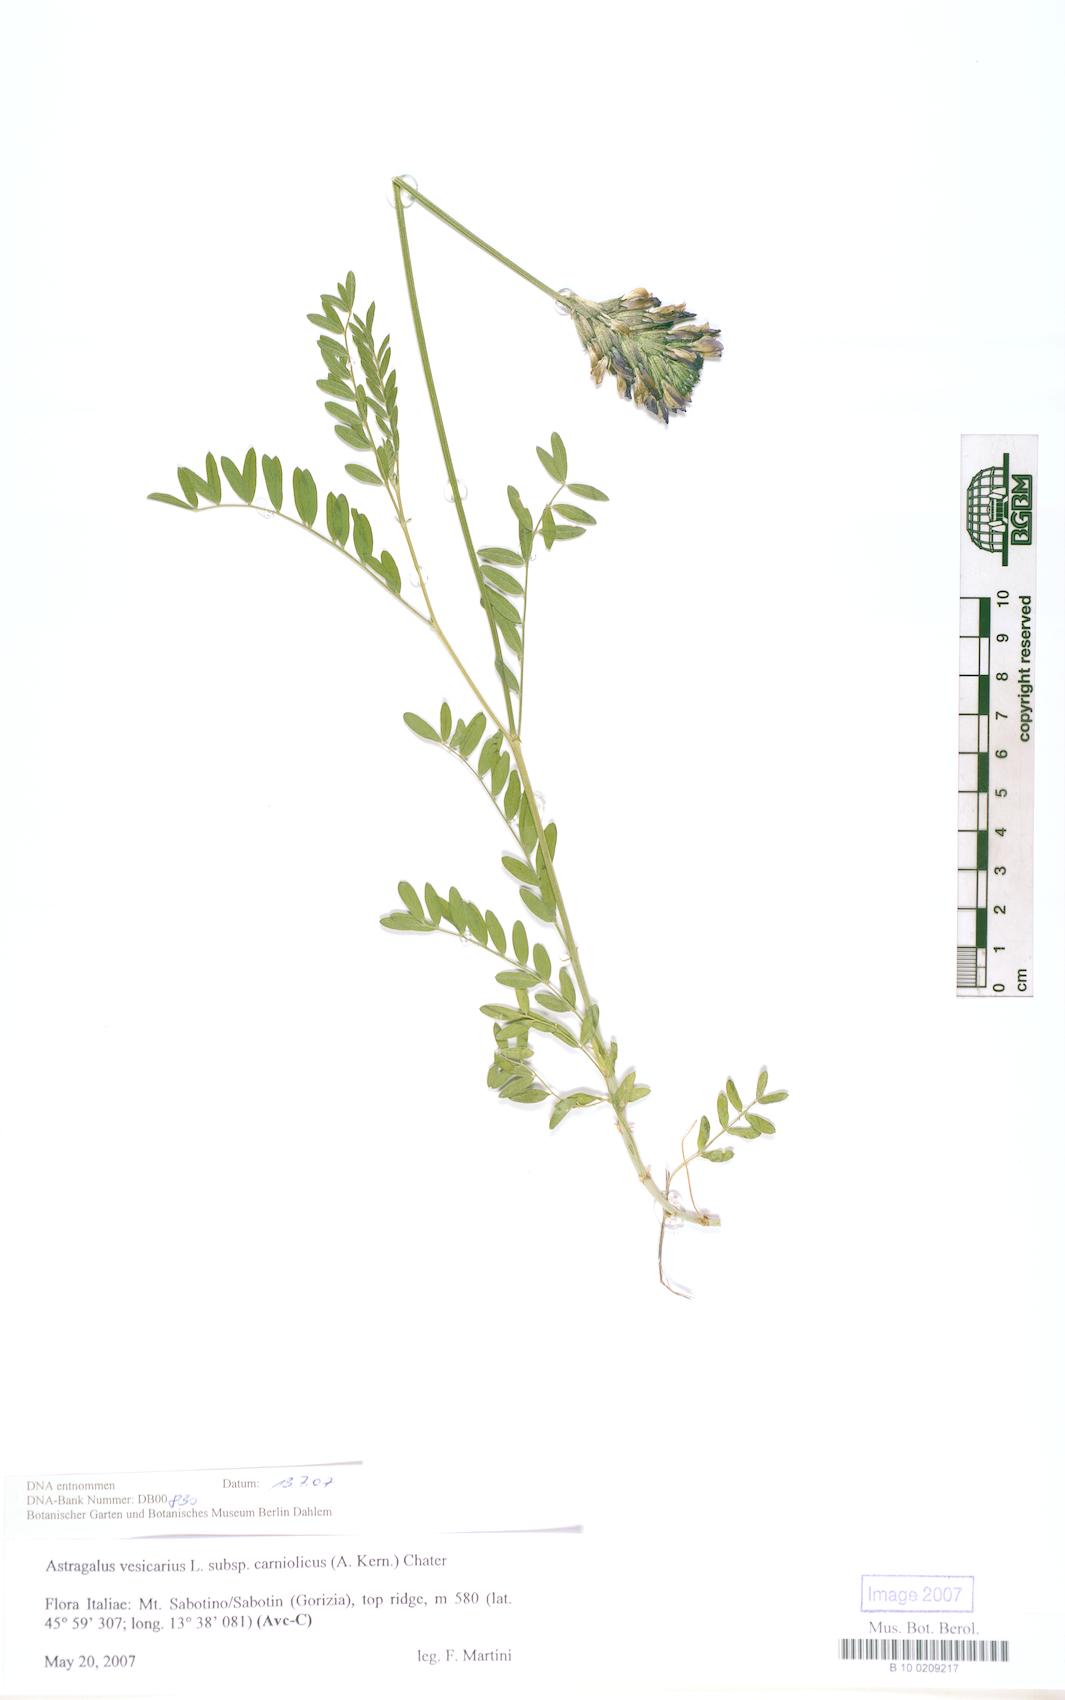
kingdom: Plantae
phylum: Tracheophyta
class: Magnoliopsida
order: Fabales
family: Fabaceae
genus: Astragalus
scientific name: Astragalus vesicarius
